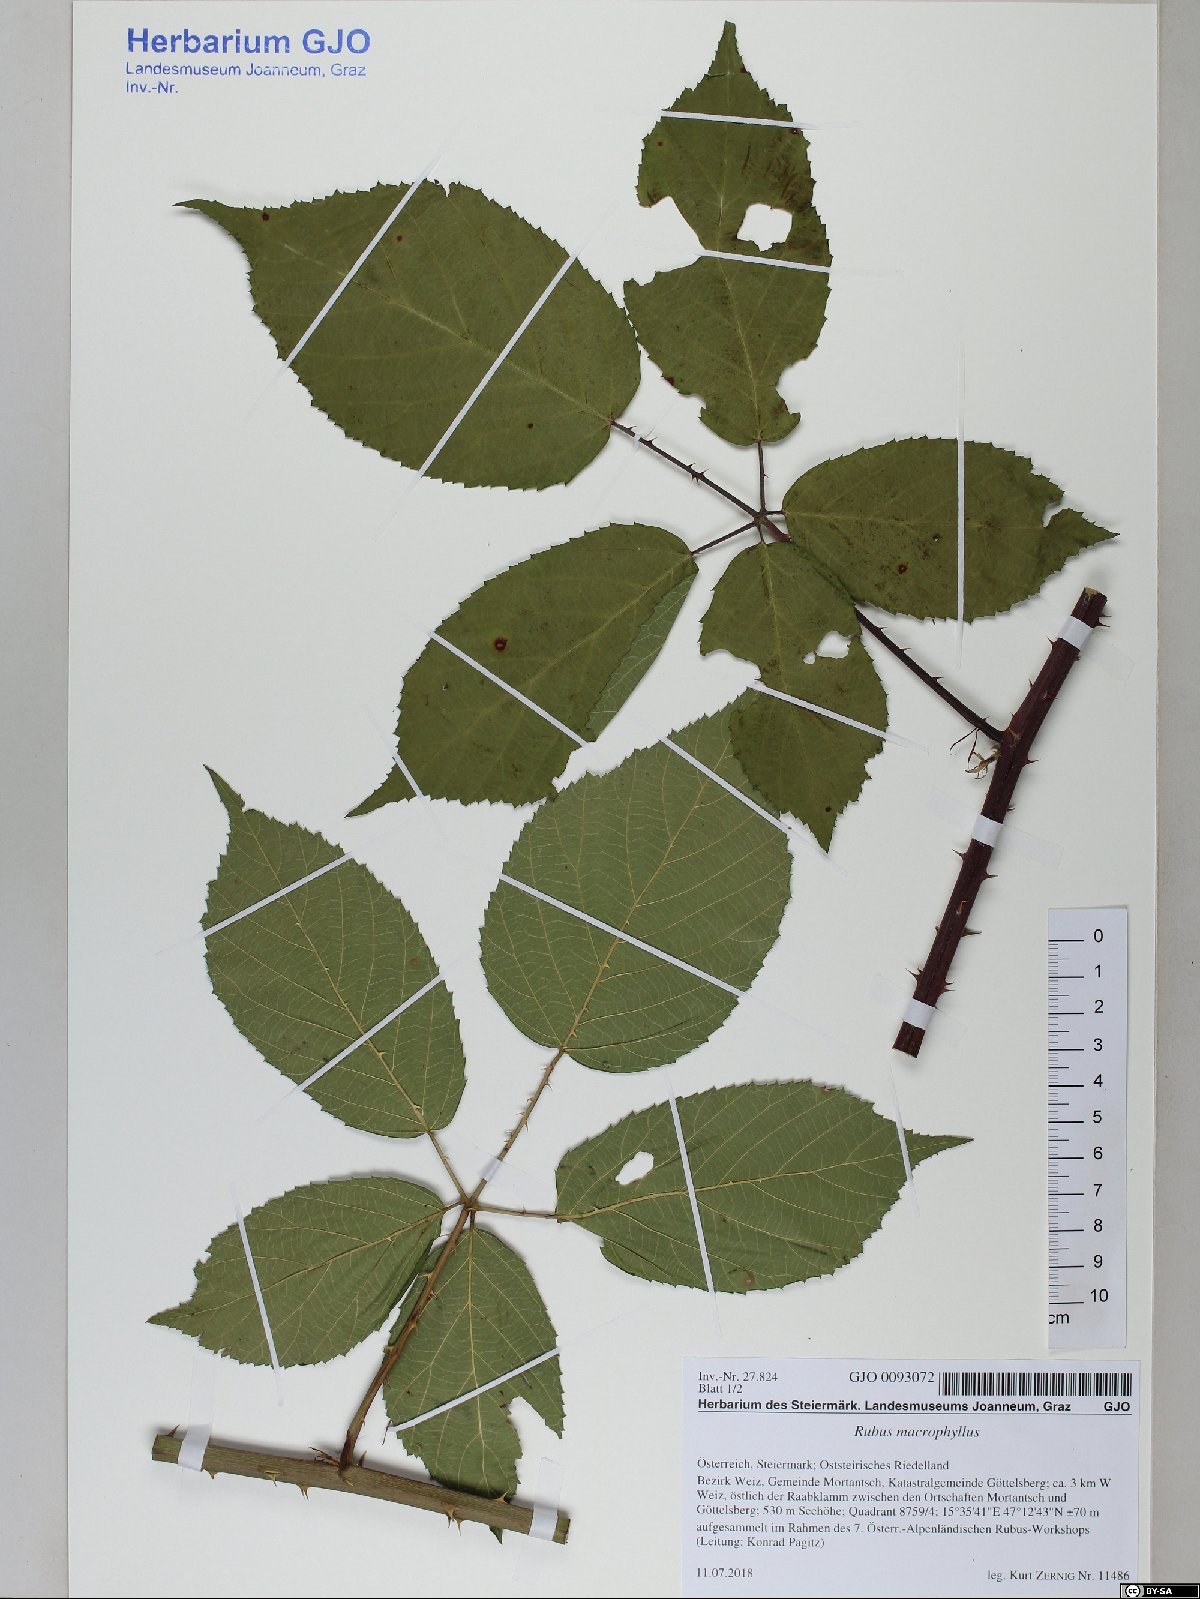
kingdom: Plantae
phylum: Tracheophyta
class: Magnoliopsida
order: Rosales
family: Rosaceae
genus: Rubus
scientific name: Rubus macrophyllus
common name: Largeleaf blackberry
